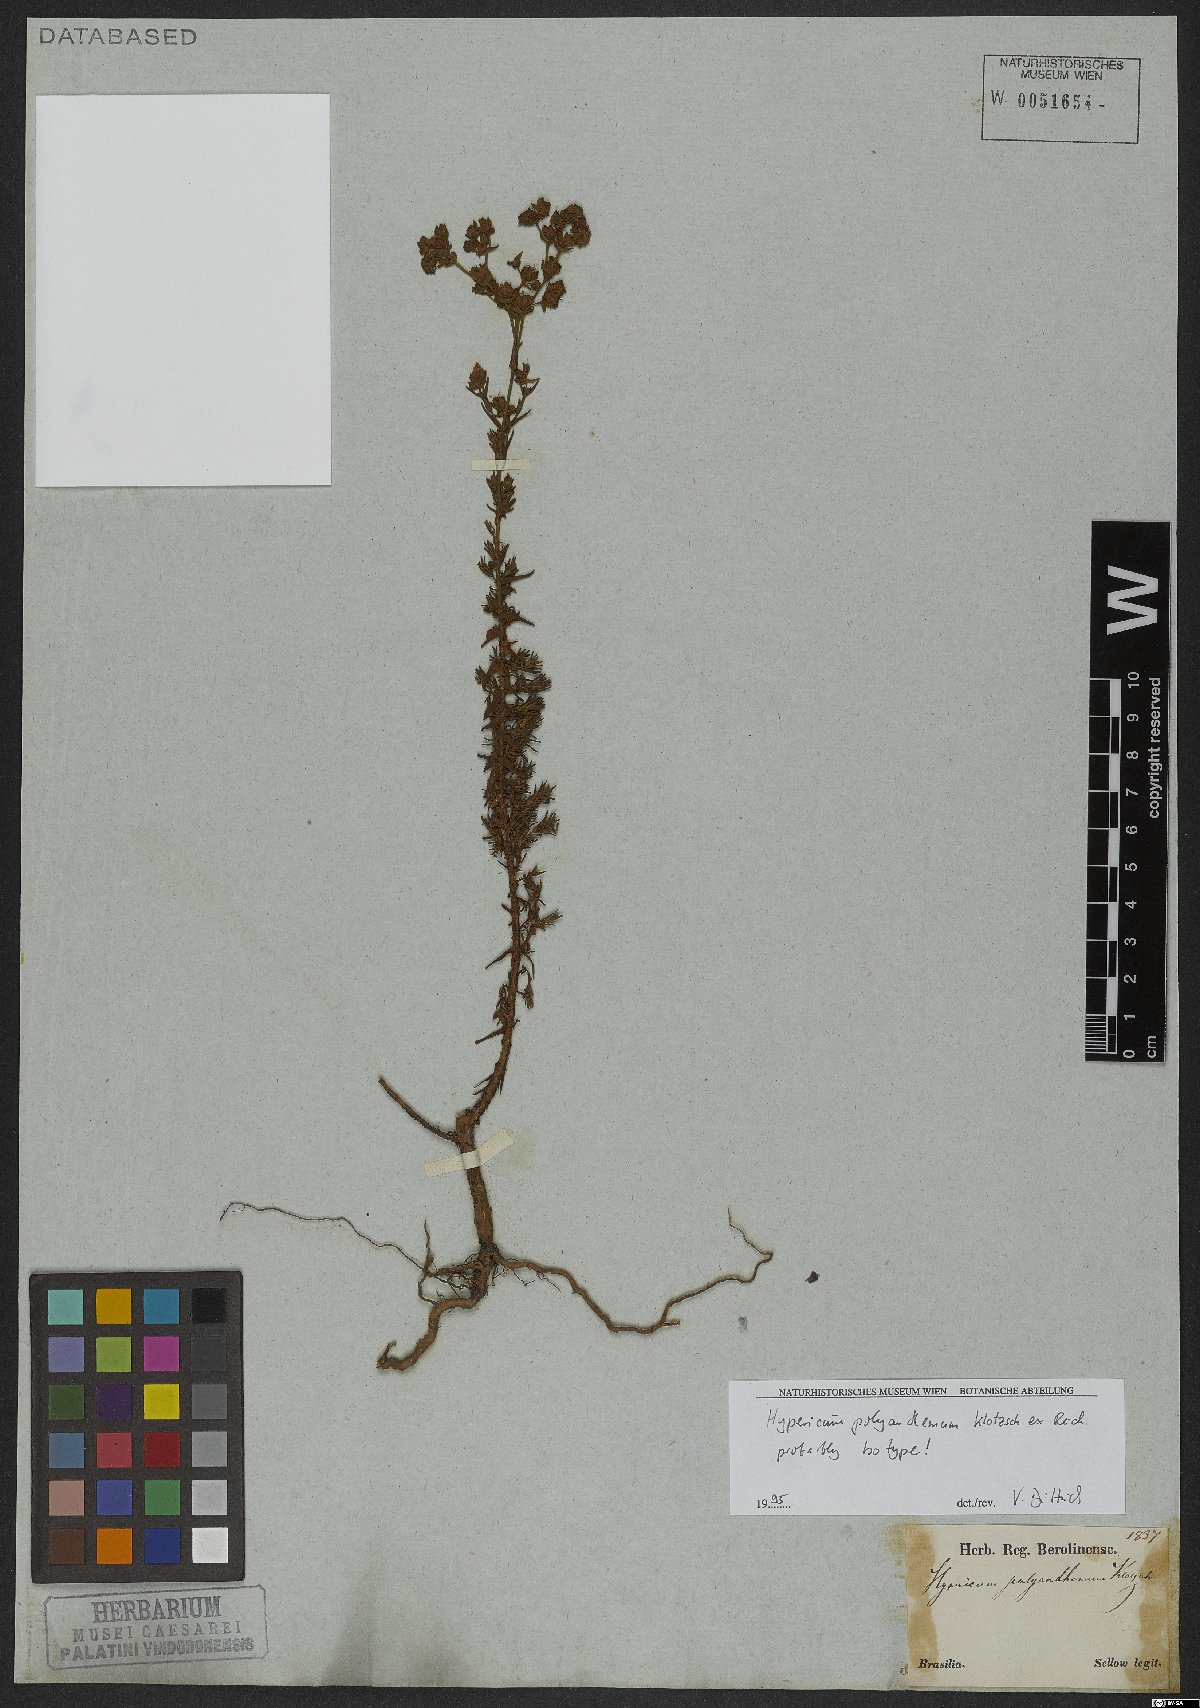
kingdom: Plantae
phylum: Tracheophyta
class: Magnoliopsida
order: Malpighiales
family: Hypericaceae
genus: Hypericum
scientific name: Hypericum polyanthemum
